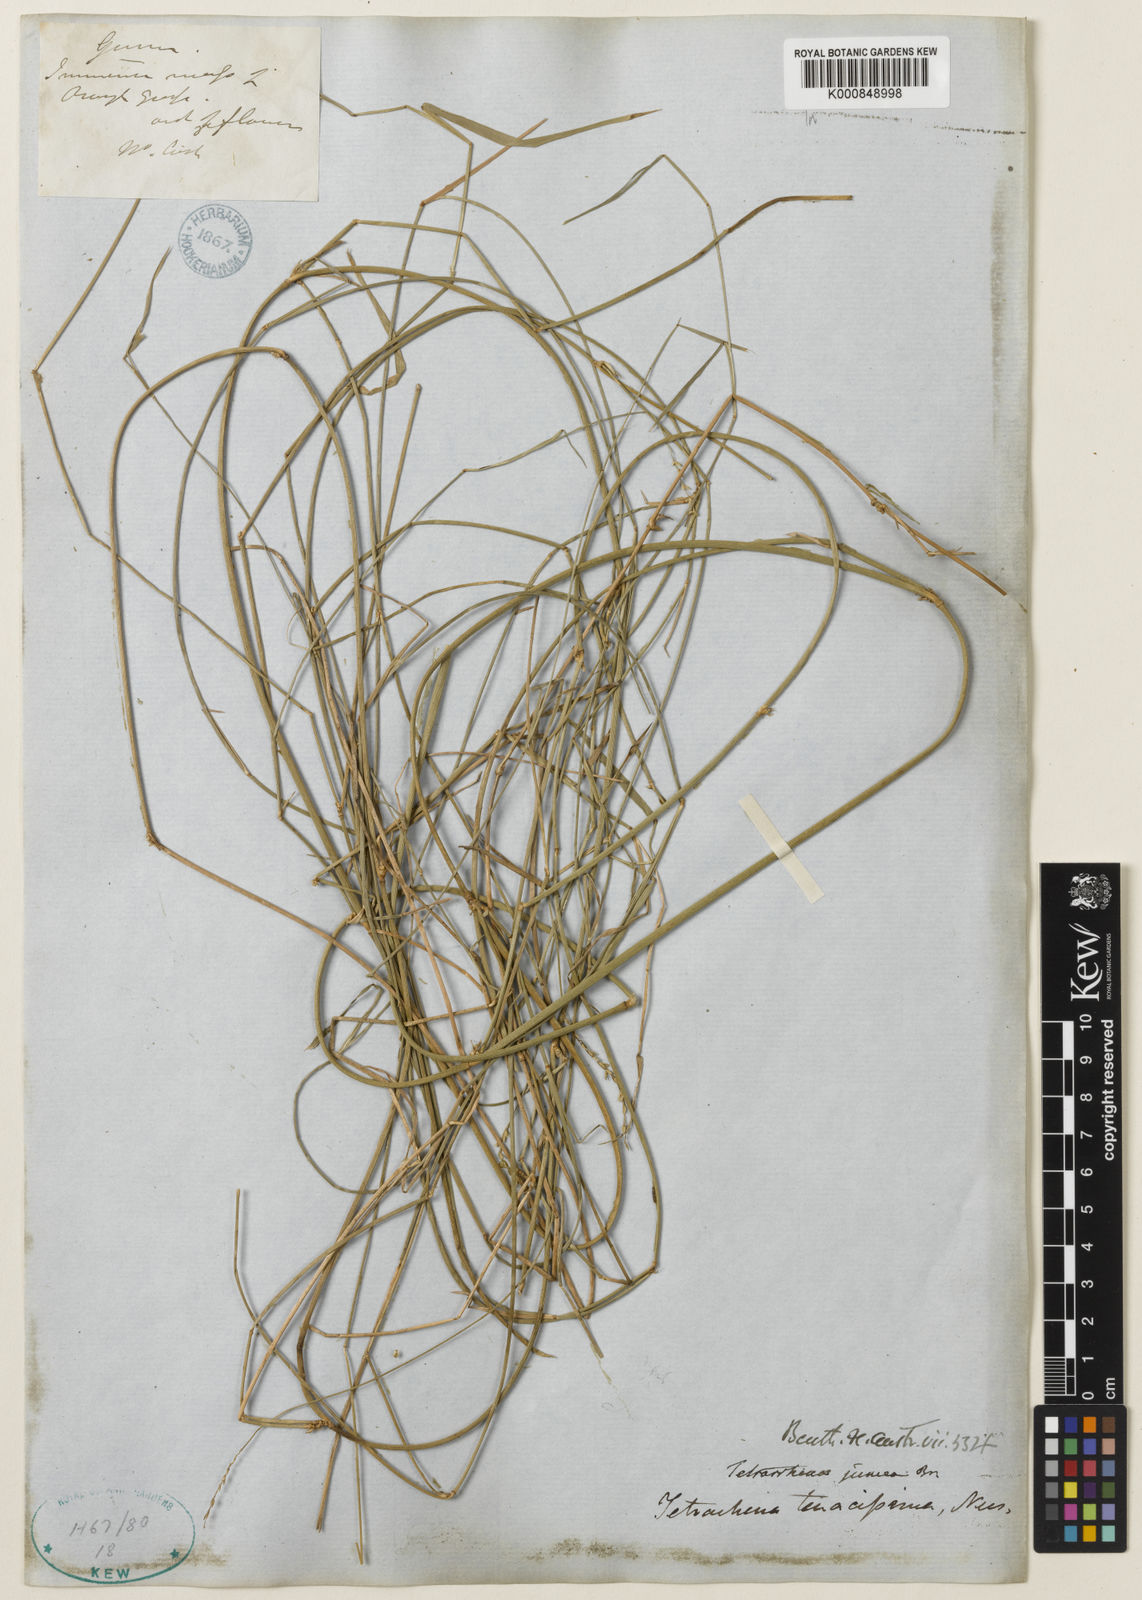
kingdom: Plantae
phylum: Tracheophyta
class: Liliopsida
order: Poales
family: Poaceae
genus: Tetrarrhena
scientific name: Tetrarrhena juncea
